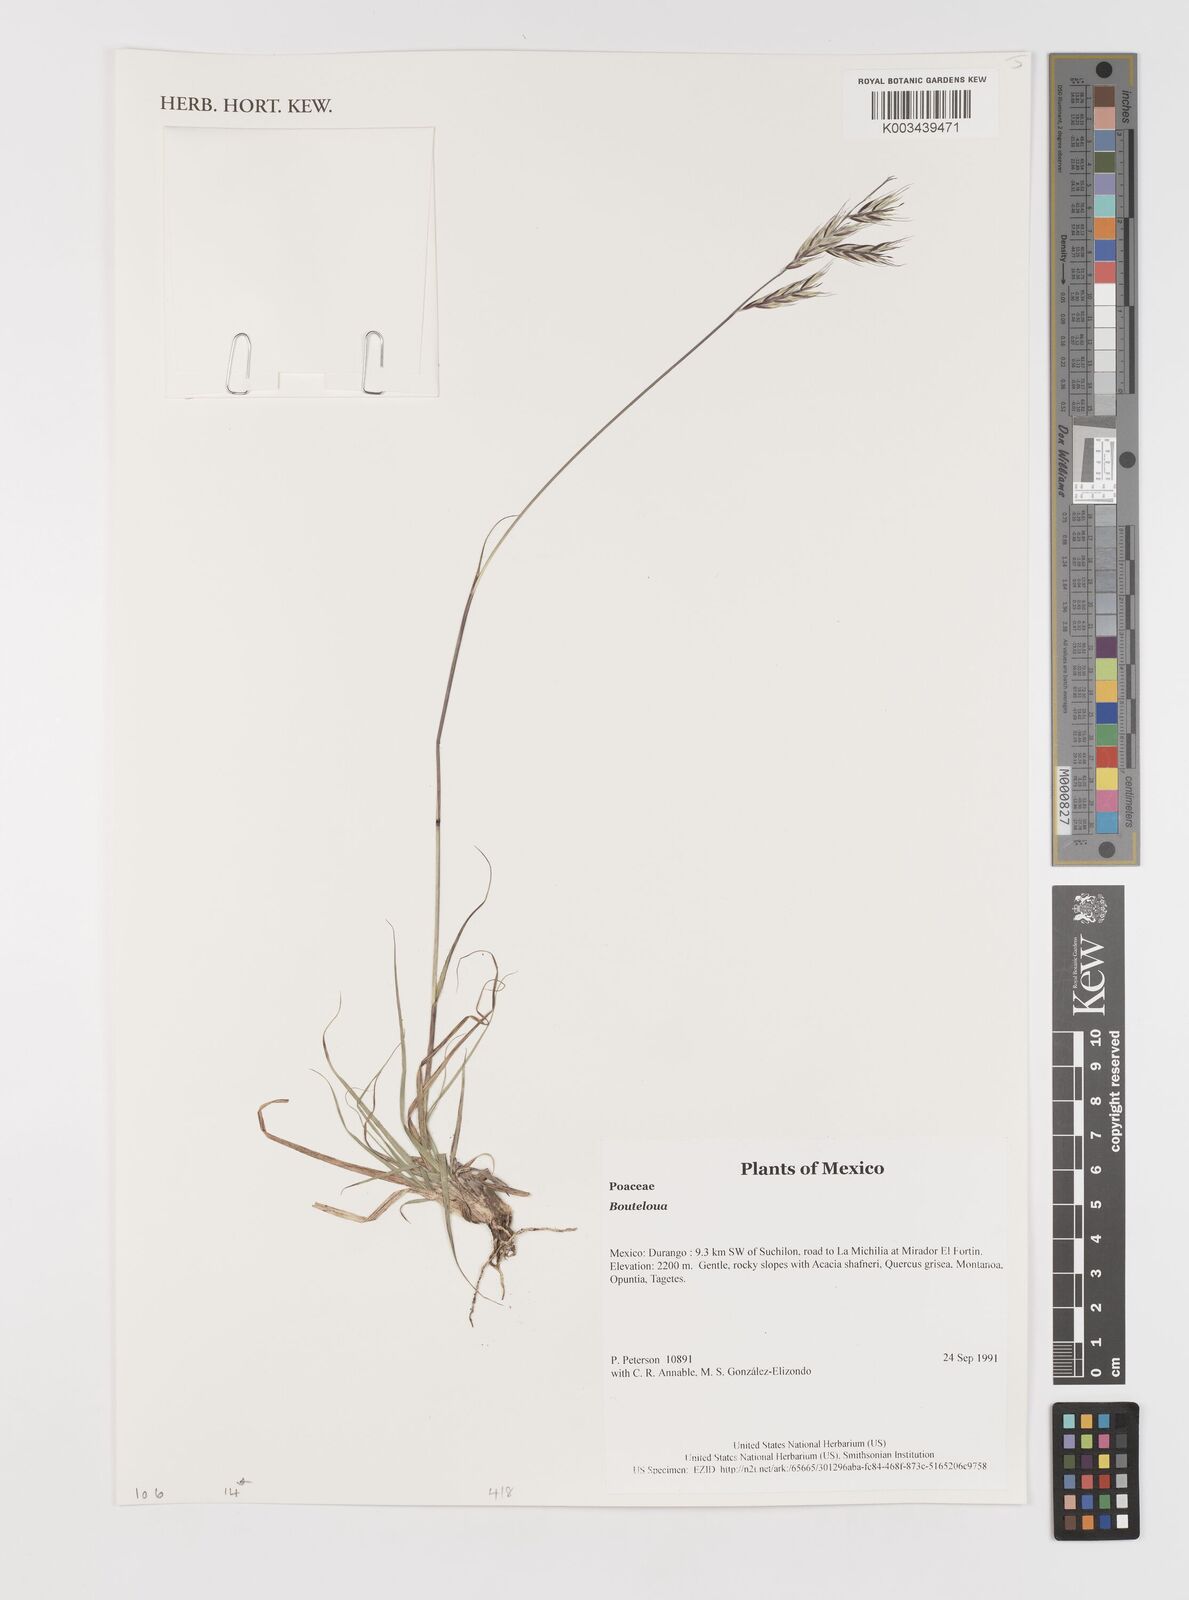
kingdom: Plantae
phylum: Tracheophyta
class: Liliopsida
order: Poales
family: Poaceae
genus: Bouteloua
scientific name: Bouteloua
